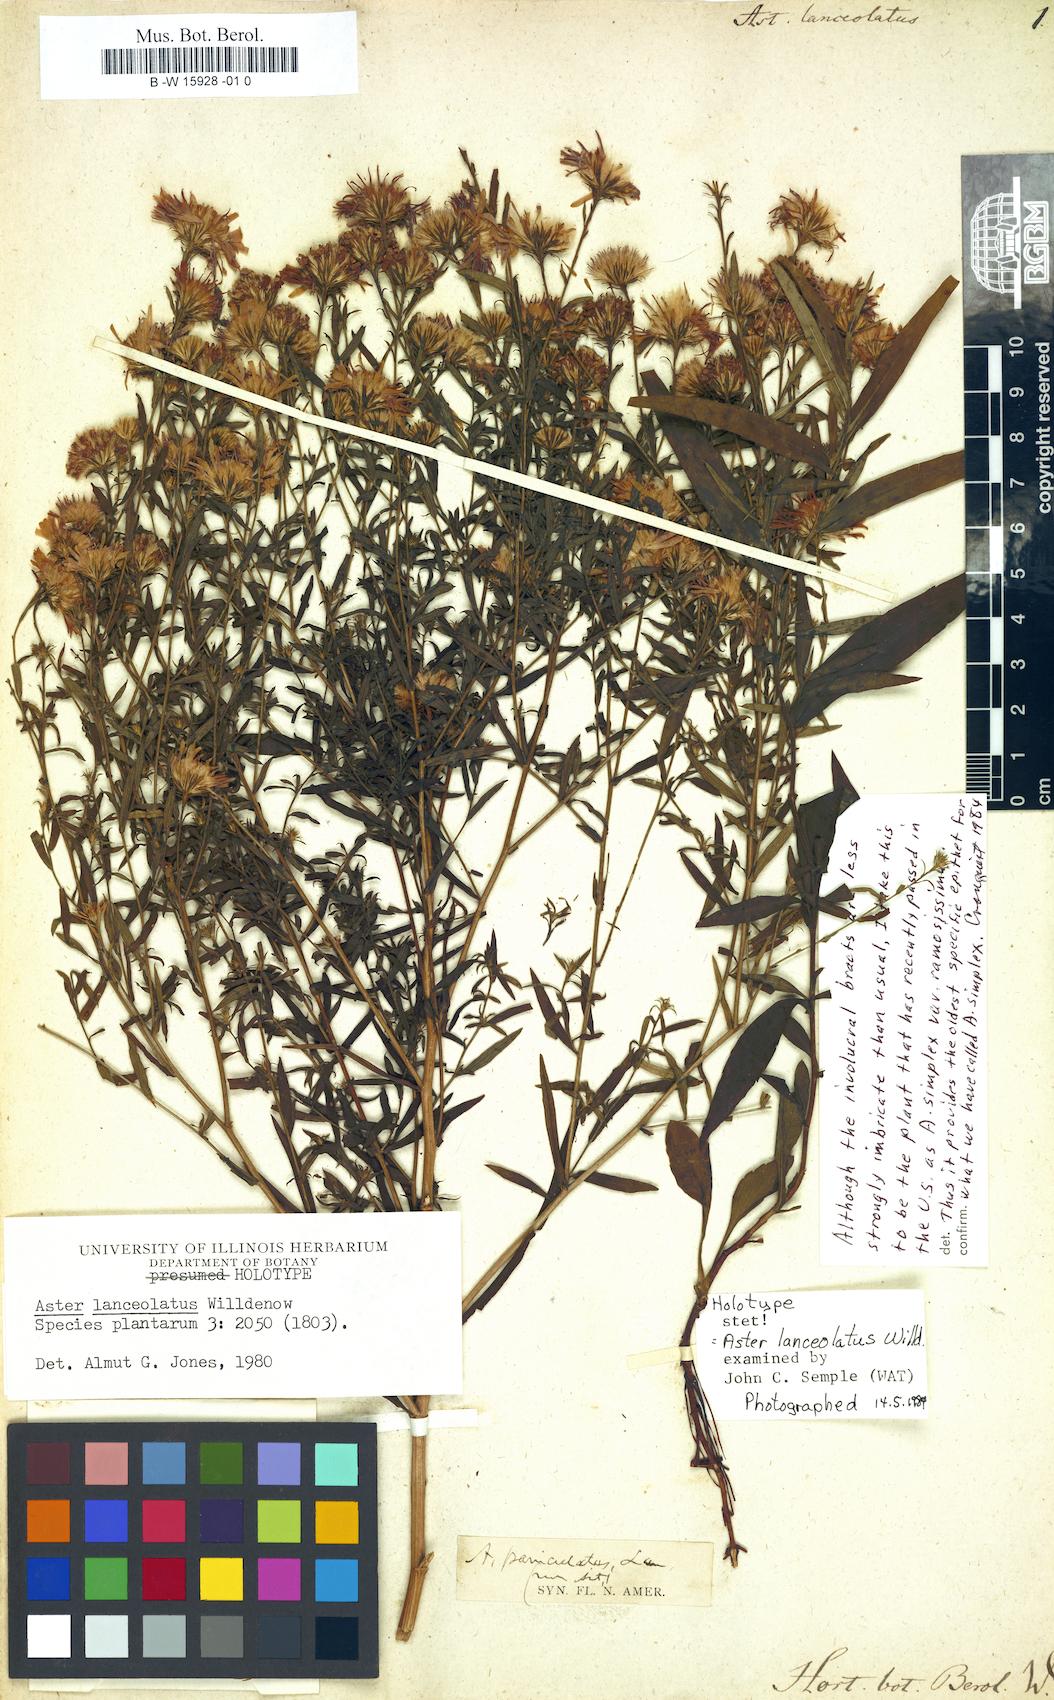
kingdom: Plantae
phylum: Tracheophyta
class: Magnoliopsida
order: Asterales
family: Asteraceae
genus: Symphyotrichum
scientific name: Symphyotrichum lanceolatum
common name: Panicled aster
